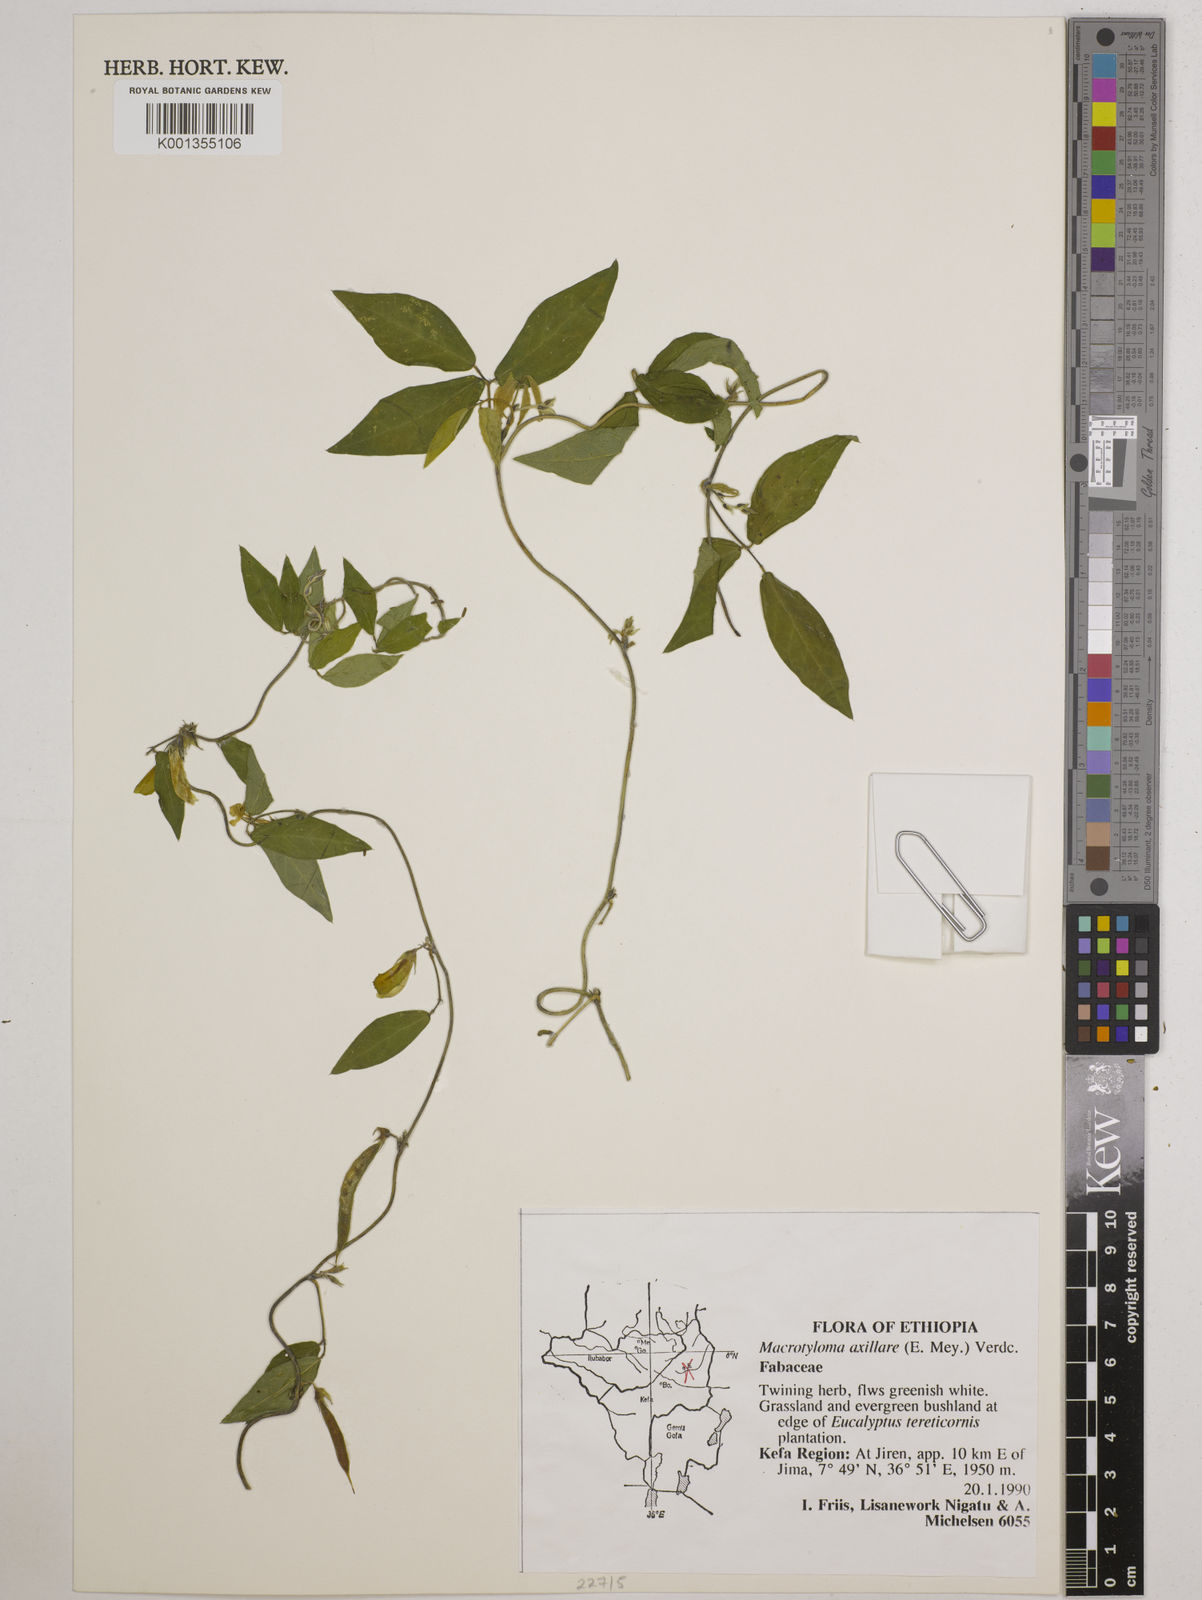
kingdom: Plantae
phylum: Tracheophyta
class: Magnoliopsida
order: Fabales
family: Fabaceae
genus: Macrotyloma
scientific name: Macrotyloma axillare
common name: Perennial horsegram
